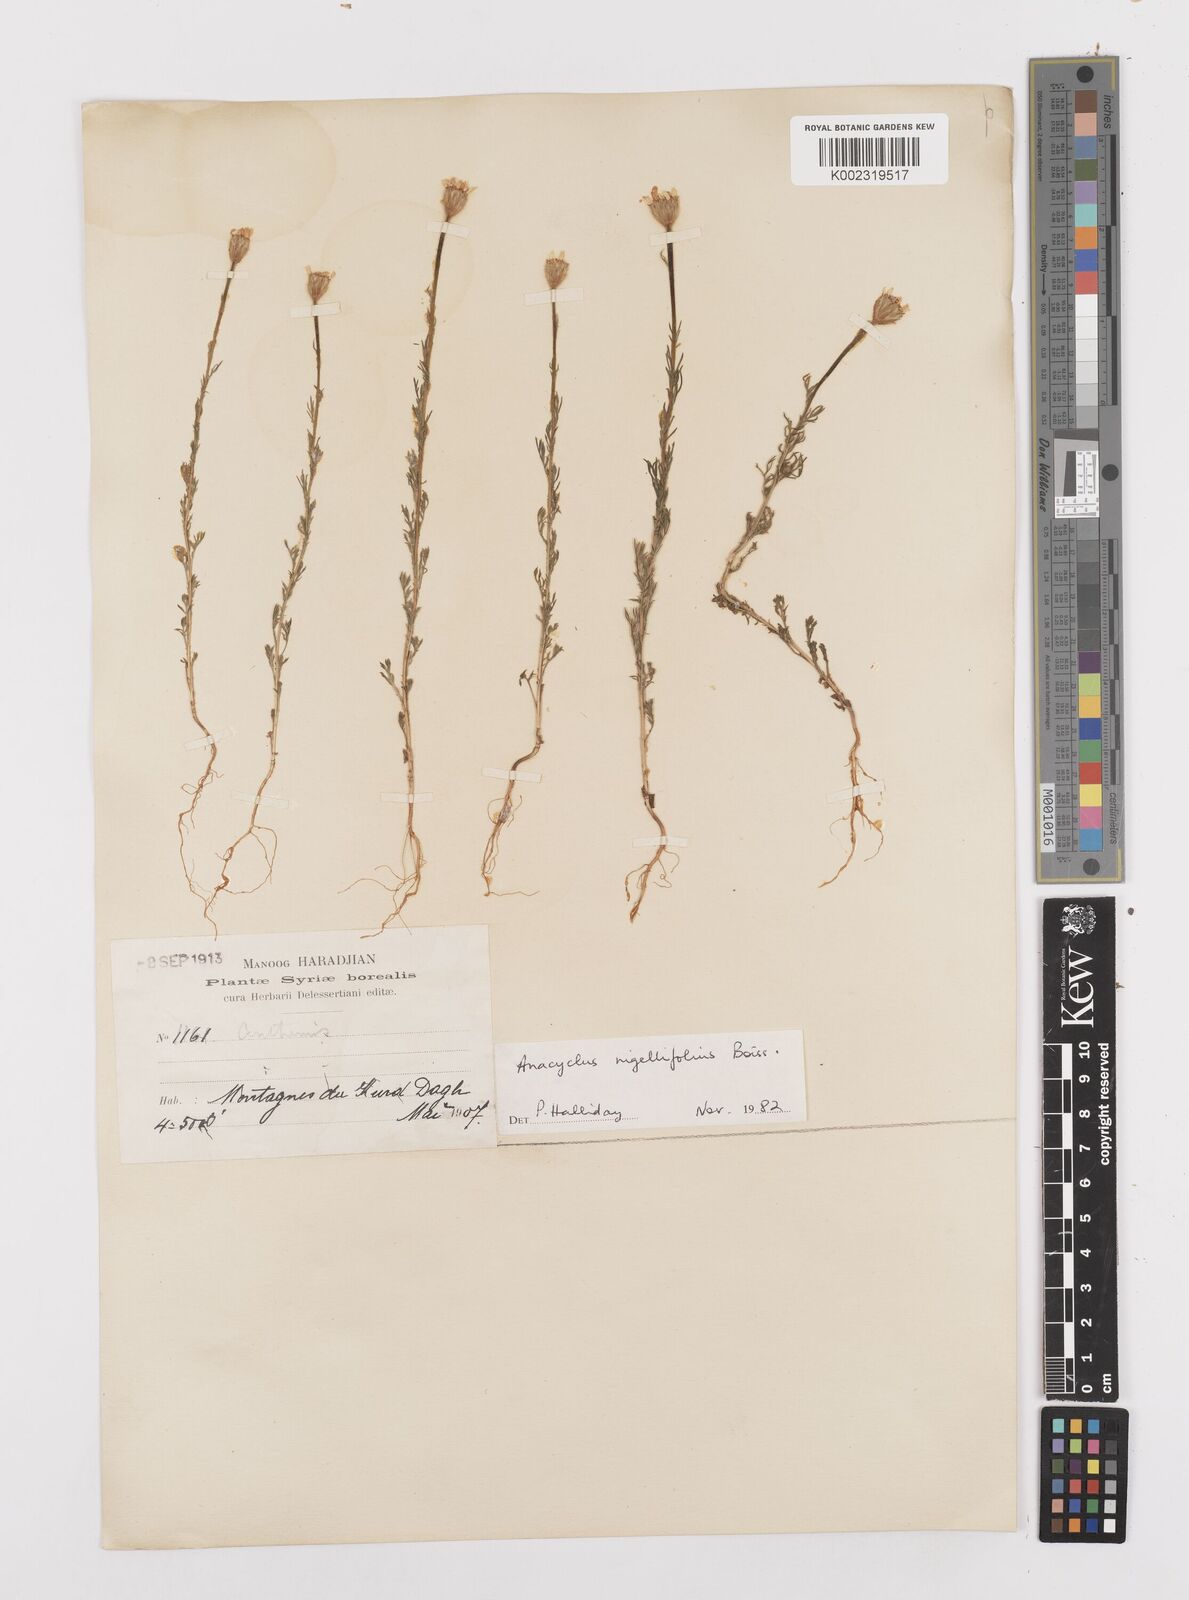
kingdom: Plantae
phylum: Tracheophyta
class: Magnoliopsida
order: Asterales
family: Asteraceae
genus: Cota
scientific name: Cota nigellifolia
